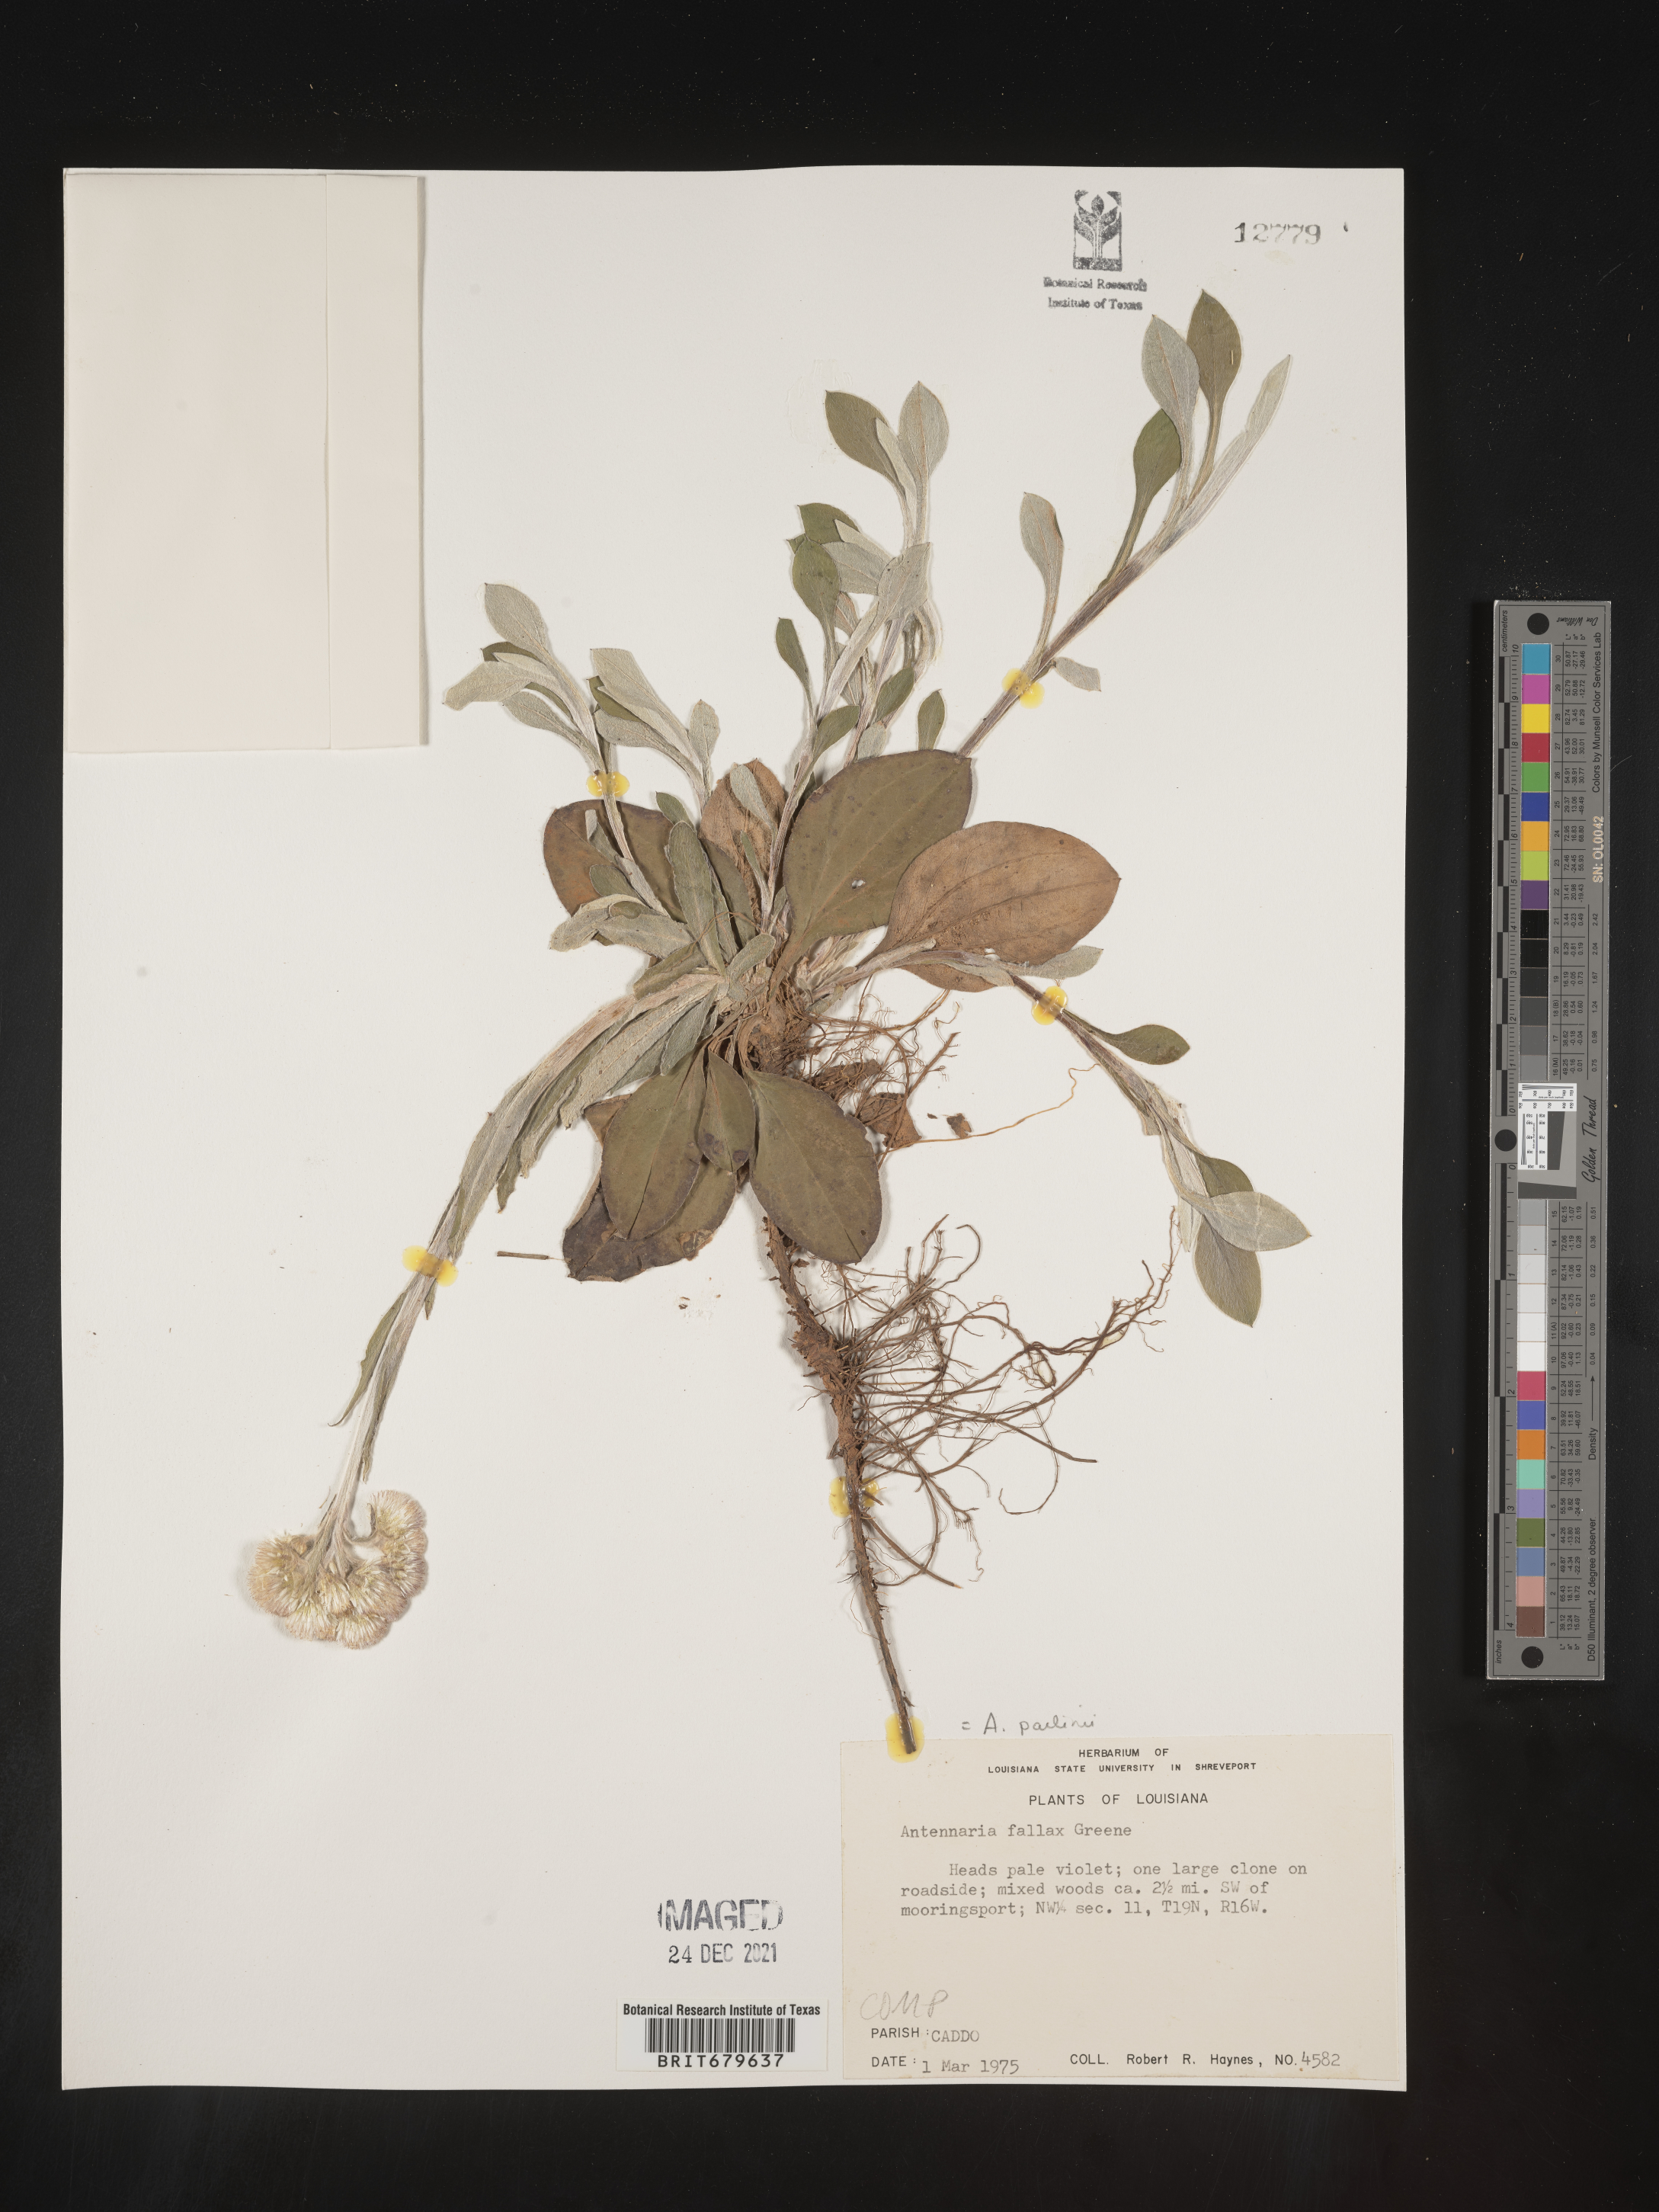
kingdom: Plantae
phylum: Tracheophyta
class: Magnoliopsida
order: Asterales
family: Asteraceae
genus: Antennaria
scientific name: Antennaria parlinii
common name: Parlin's pussytoes
